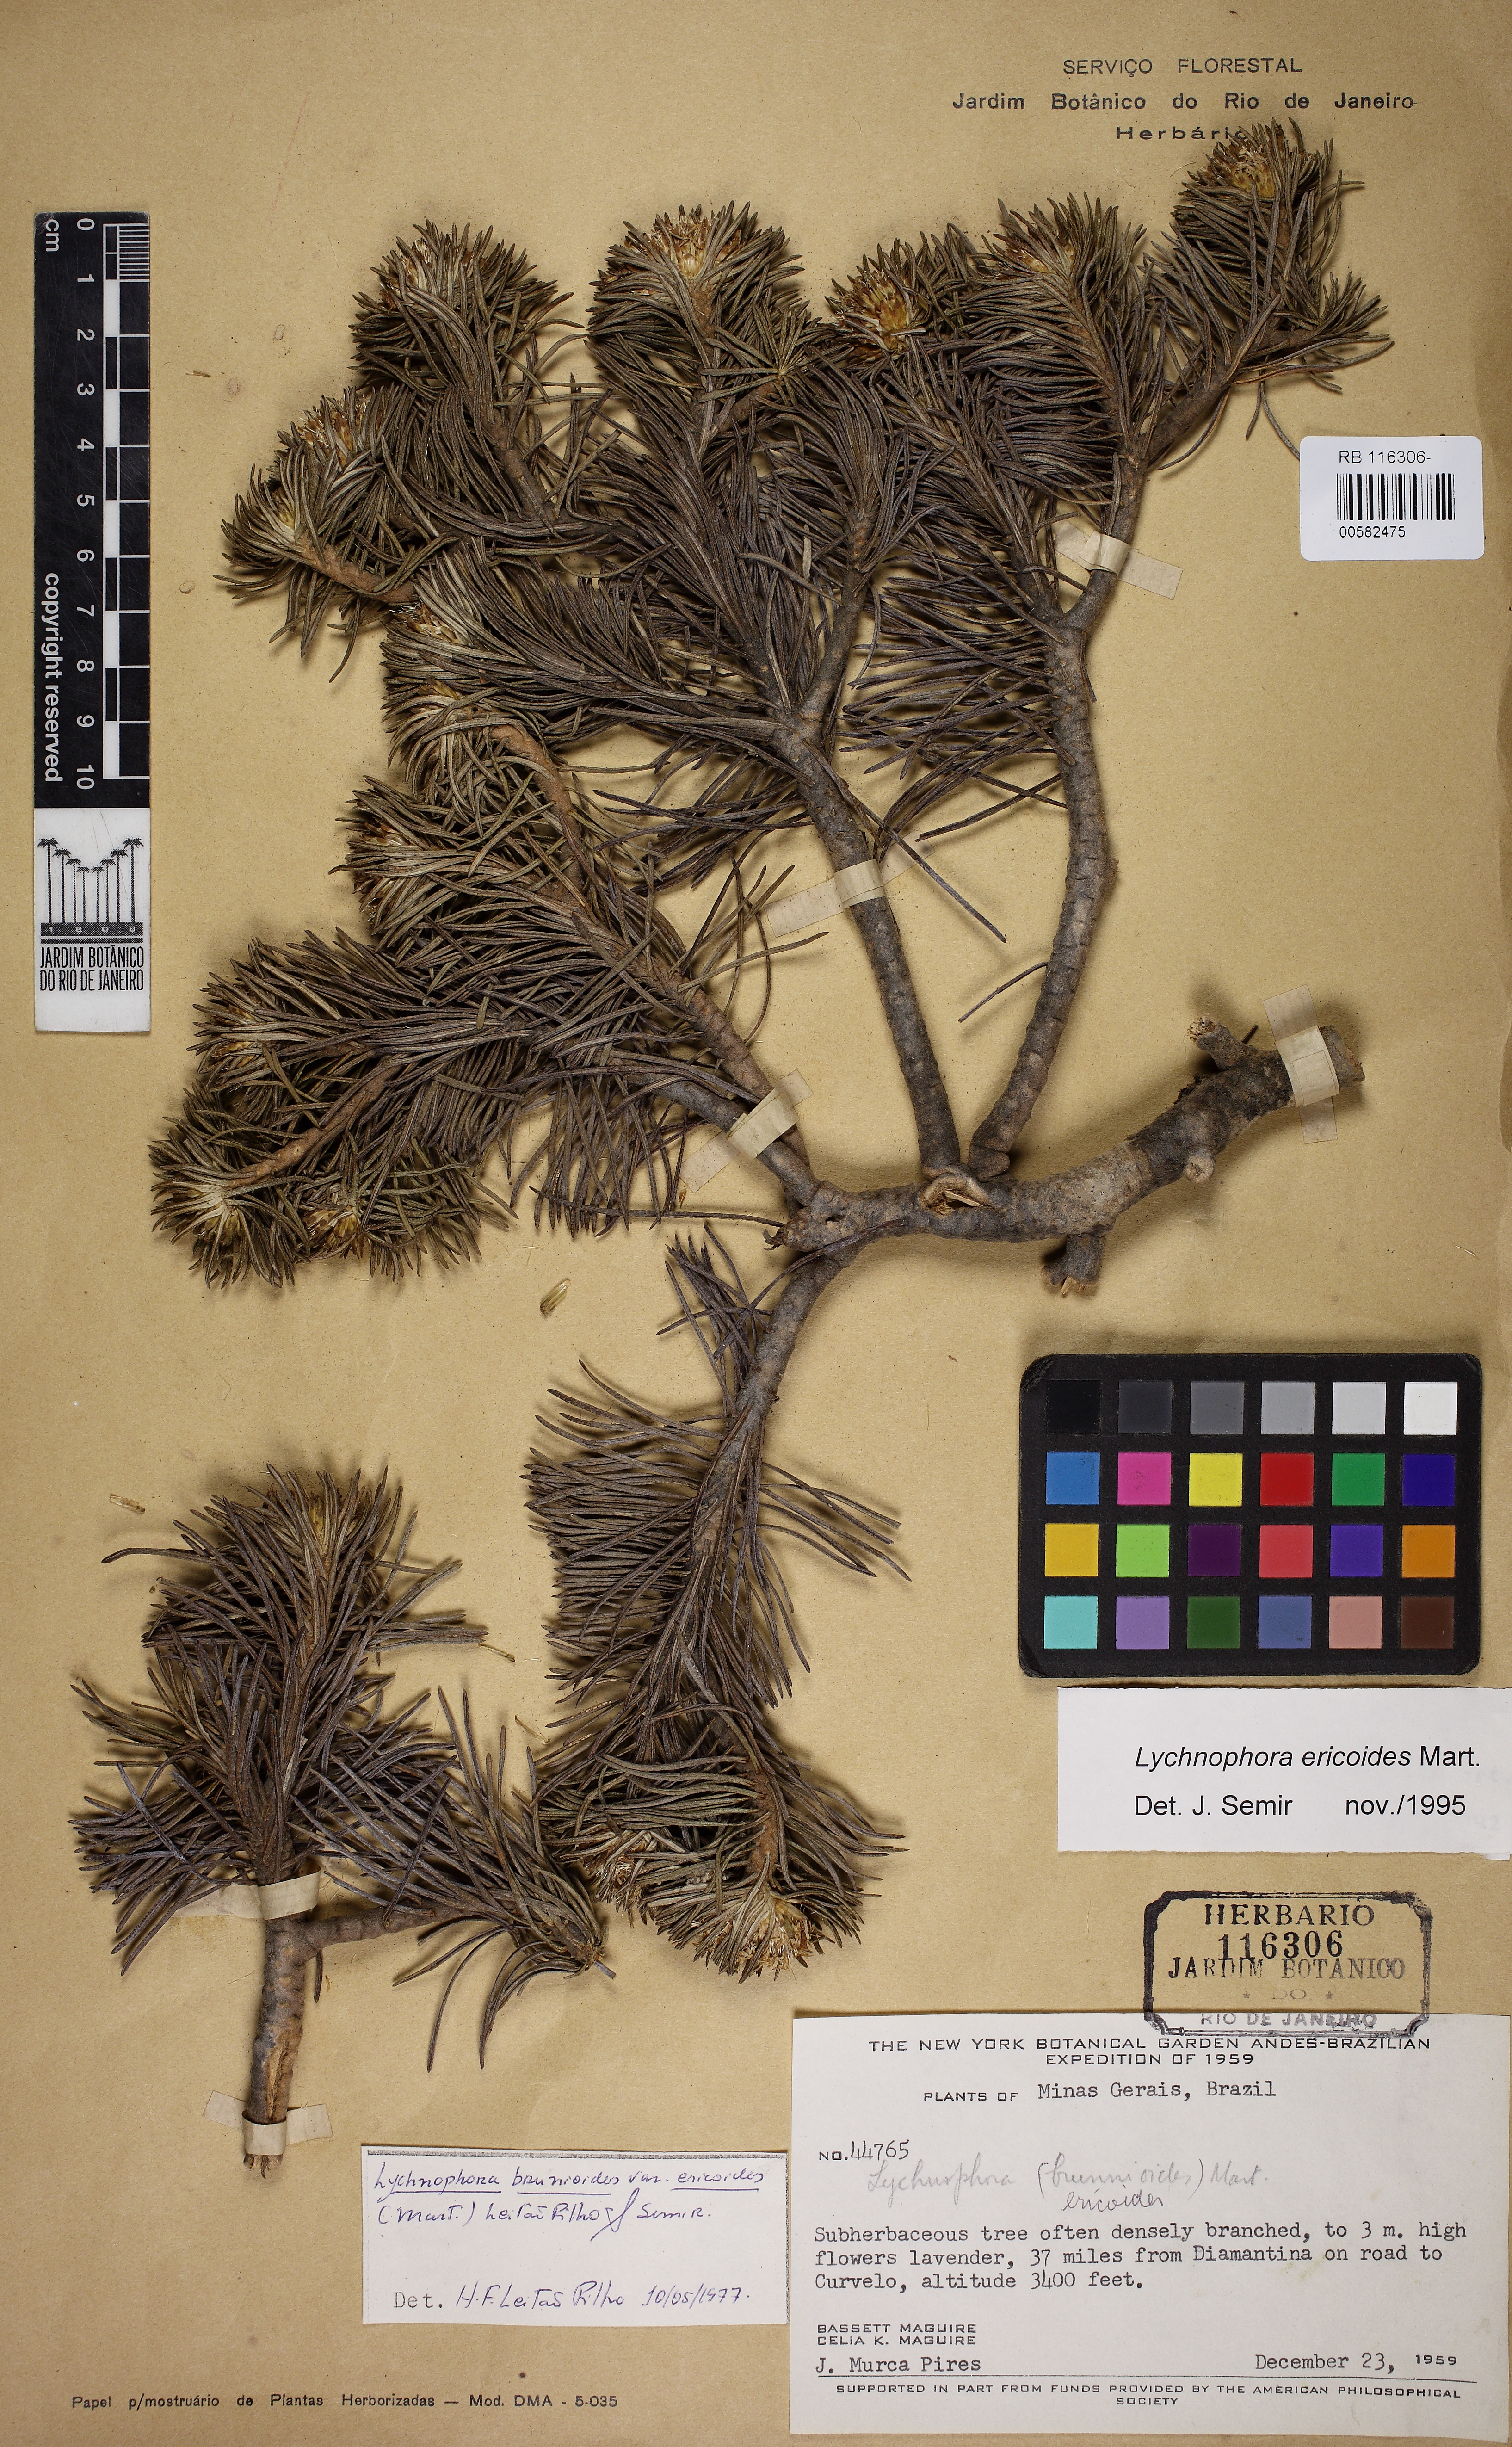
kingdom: Plantae
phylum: Tracheophyta
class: Magnoliopsida
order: Asterales
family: Asteraceae
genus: Lychnophora
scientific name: Lychnophora ericoides
